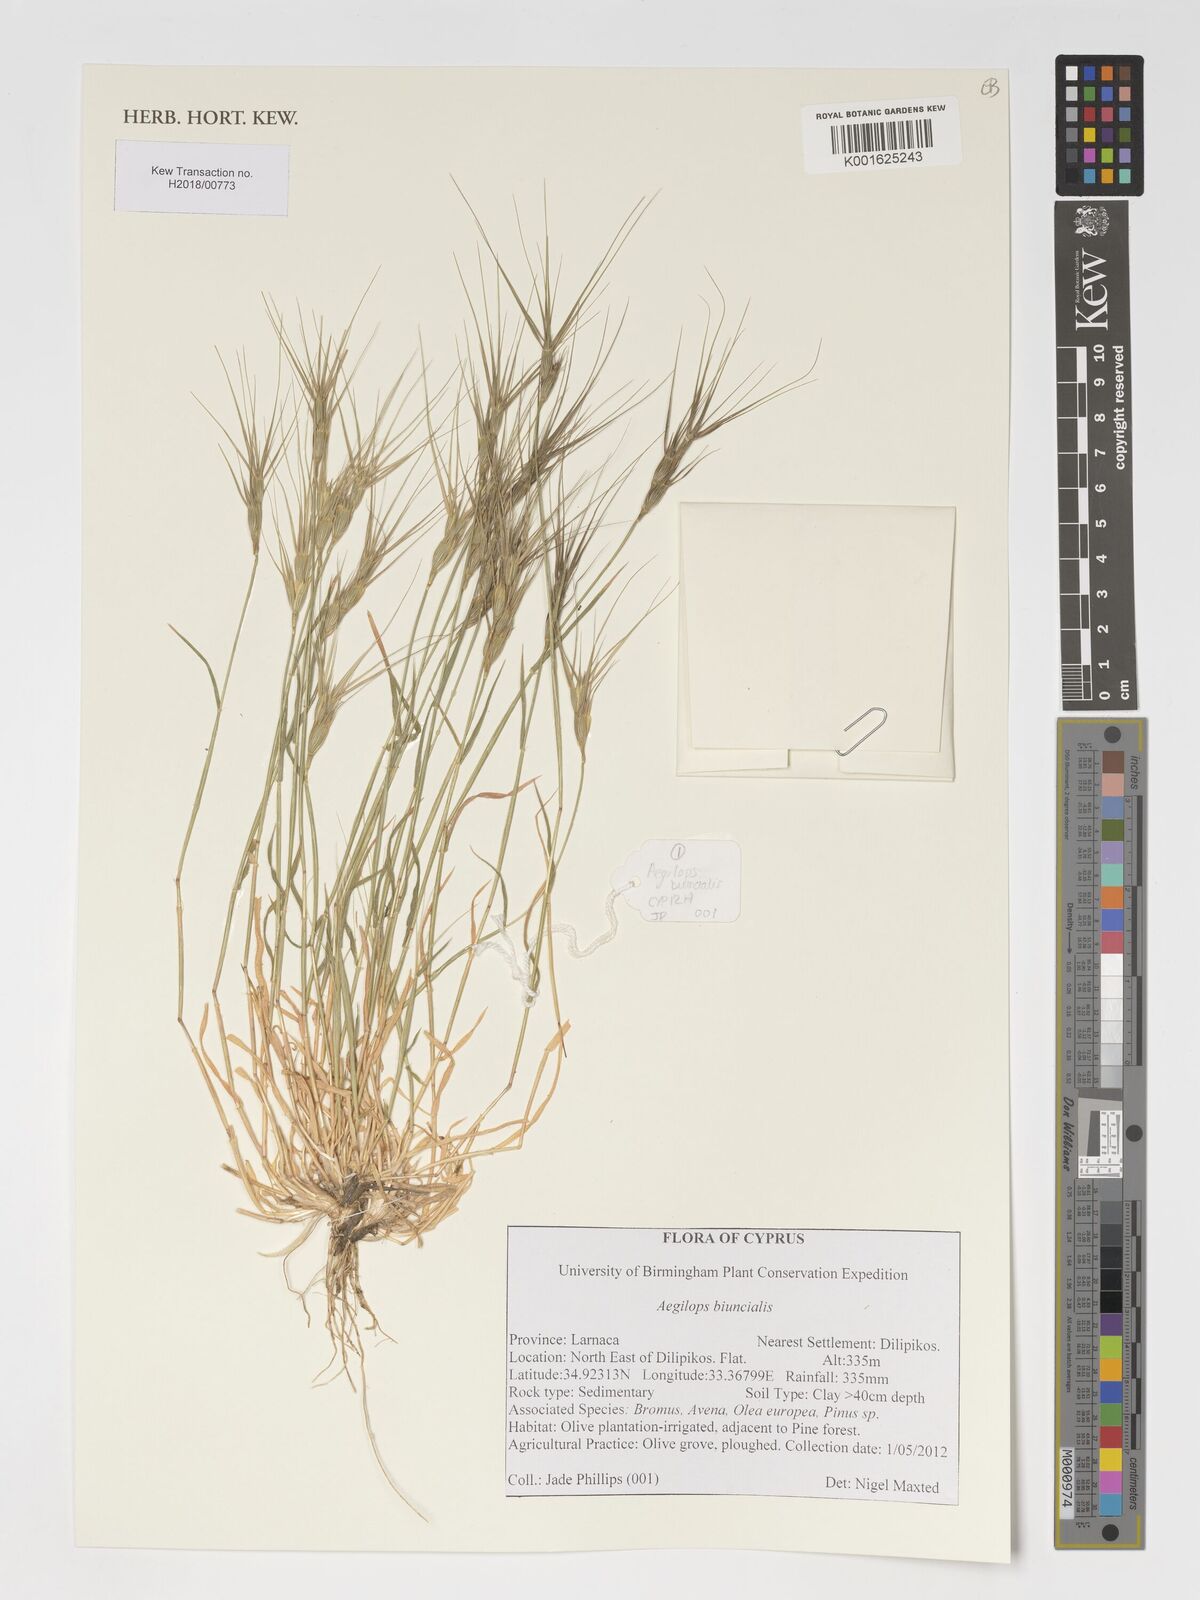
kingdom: Plantae
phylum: Tracheophyta
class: Liliopsida
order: Poales
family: Poaceae
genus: Aegilops
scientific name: Aegilops biuncialis
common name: Mediterranean aegilops
